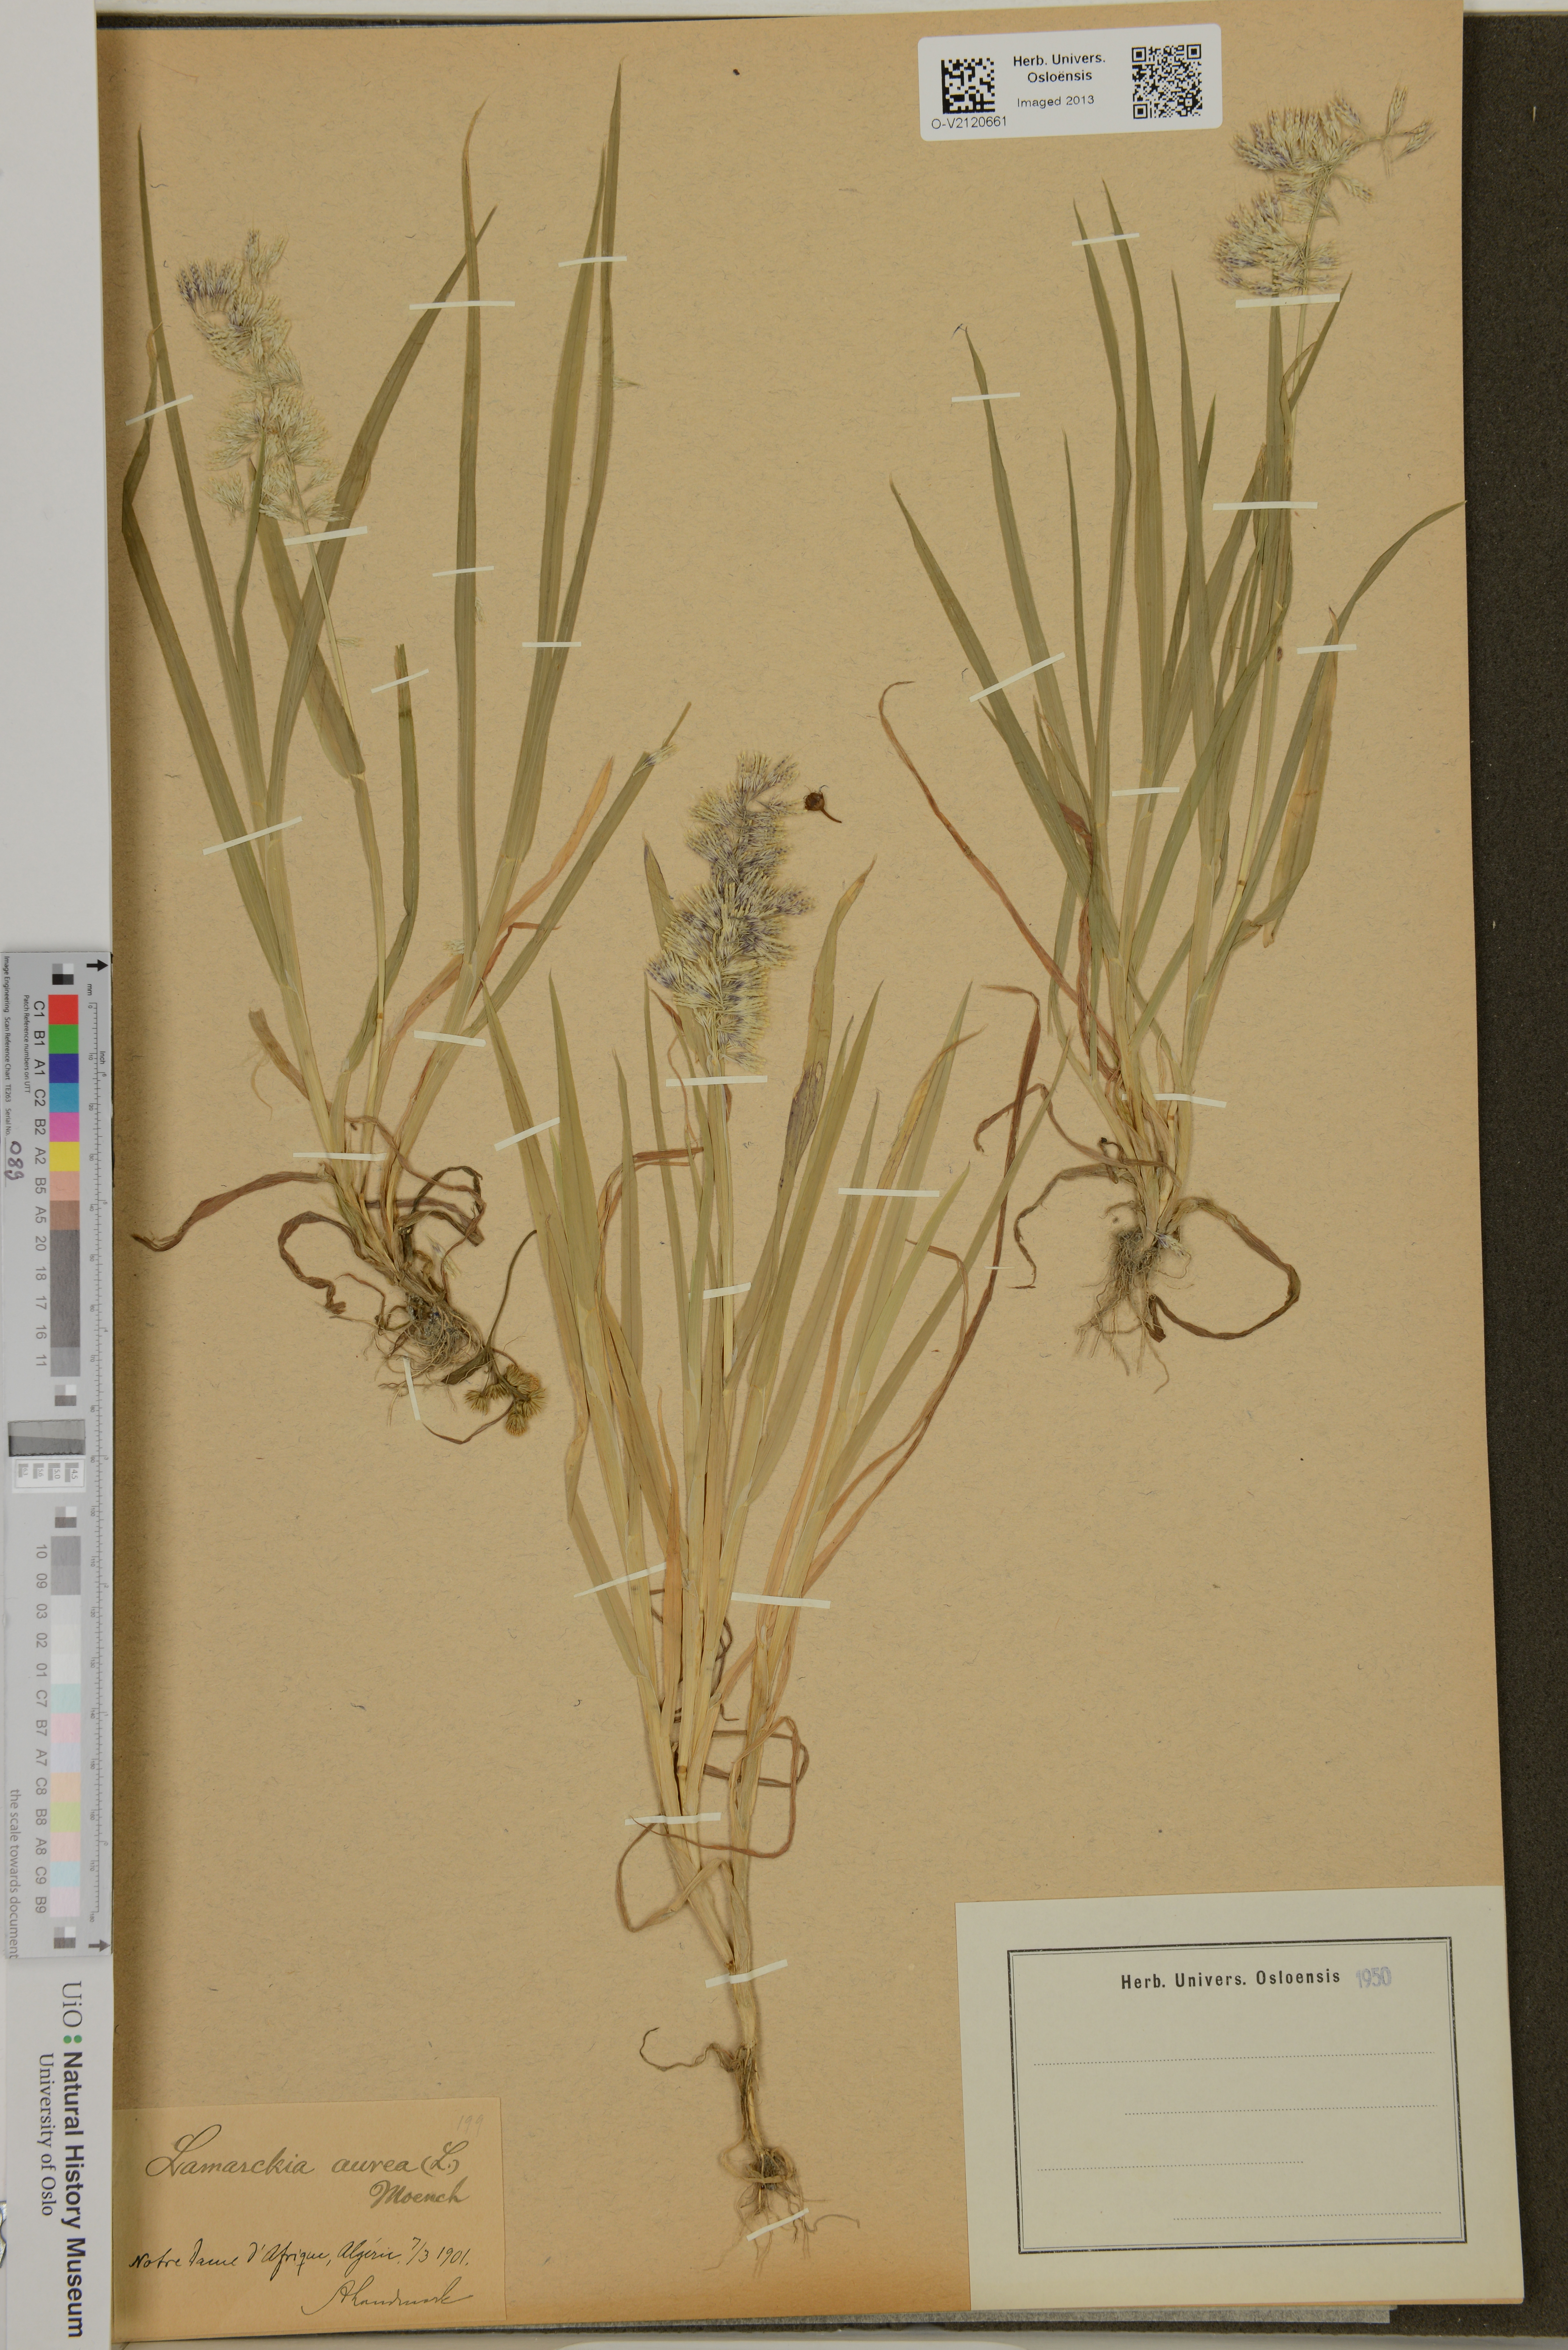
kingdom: Plantae
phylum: Tracheophyta
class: Liliopsida
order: Poales
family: Poaceae
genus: Lamarckia
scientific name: Lamarckia aurea
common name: Golden dog's-tail
